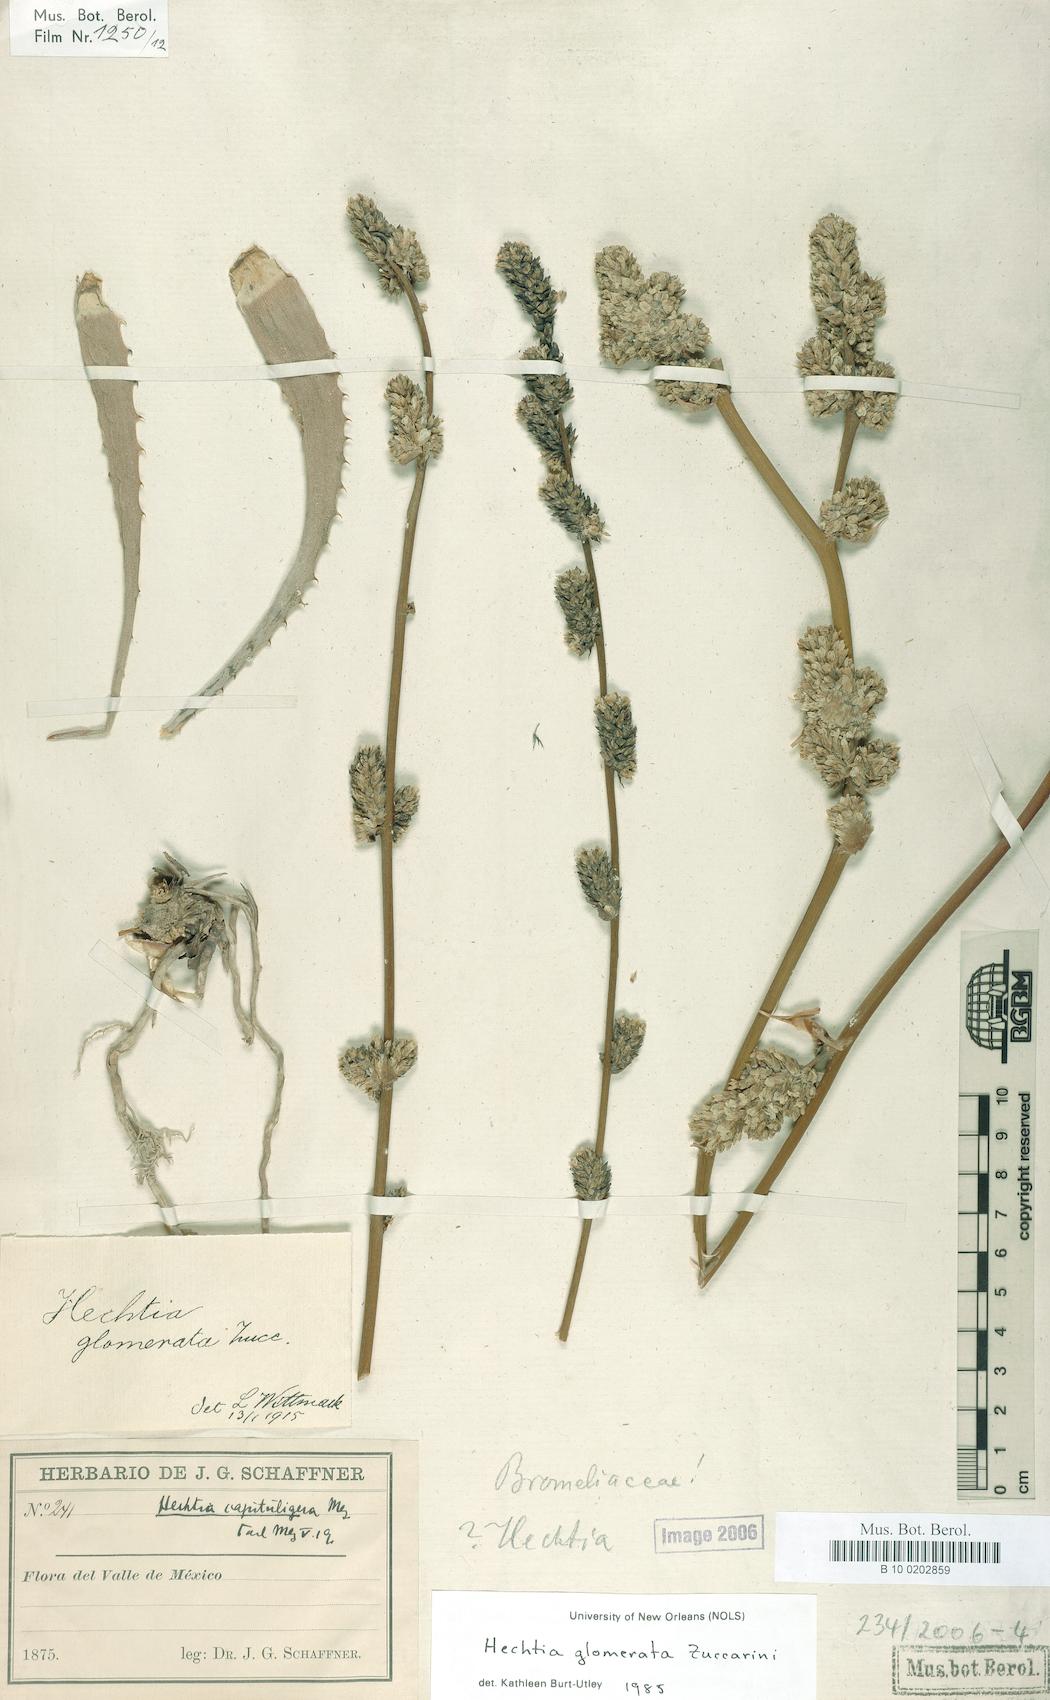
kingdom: Plantae
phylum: Tracheophyta
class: Liliopsida
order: Poales
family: Bromeliaceae
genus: Hechtia
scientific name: Hechtia glomerata
